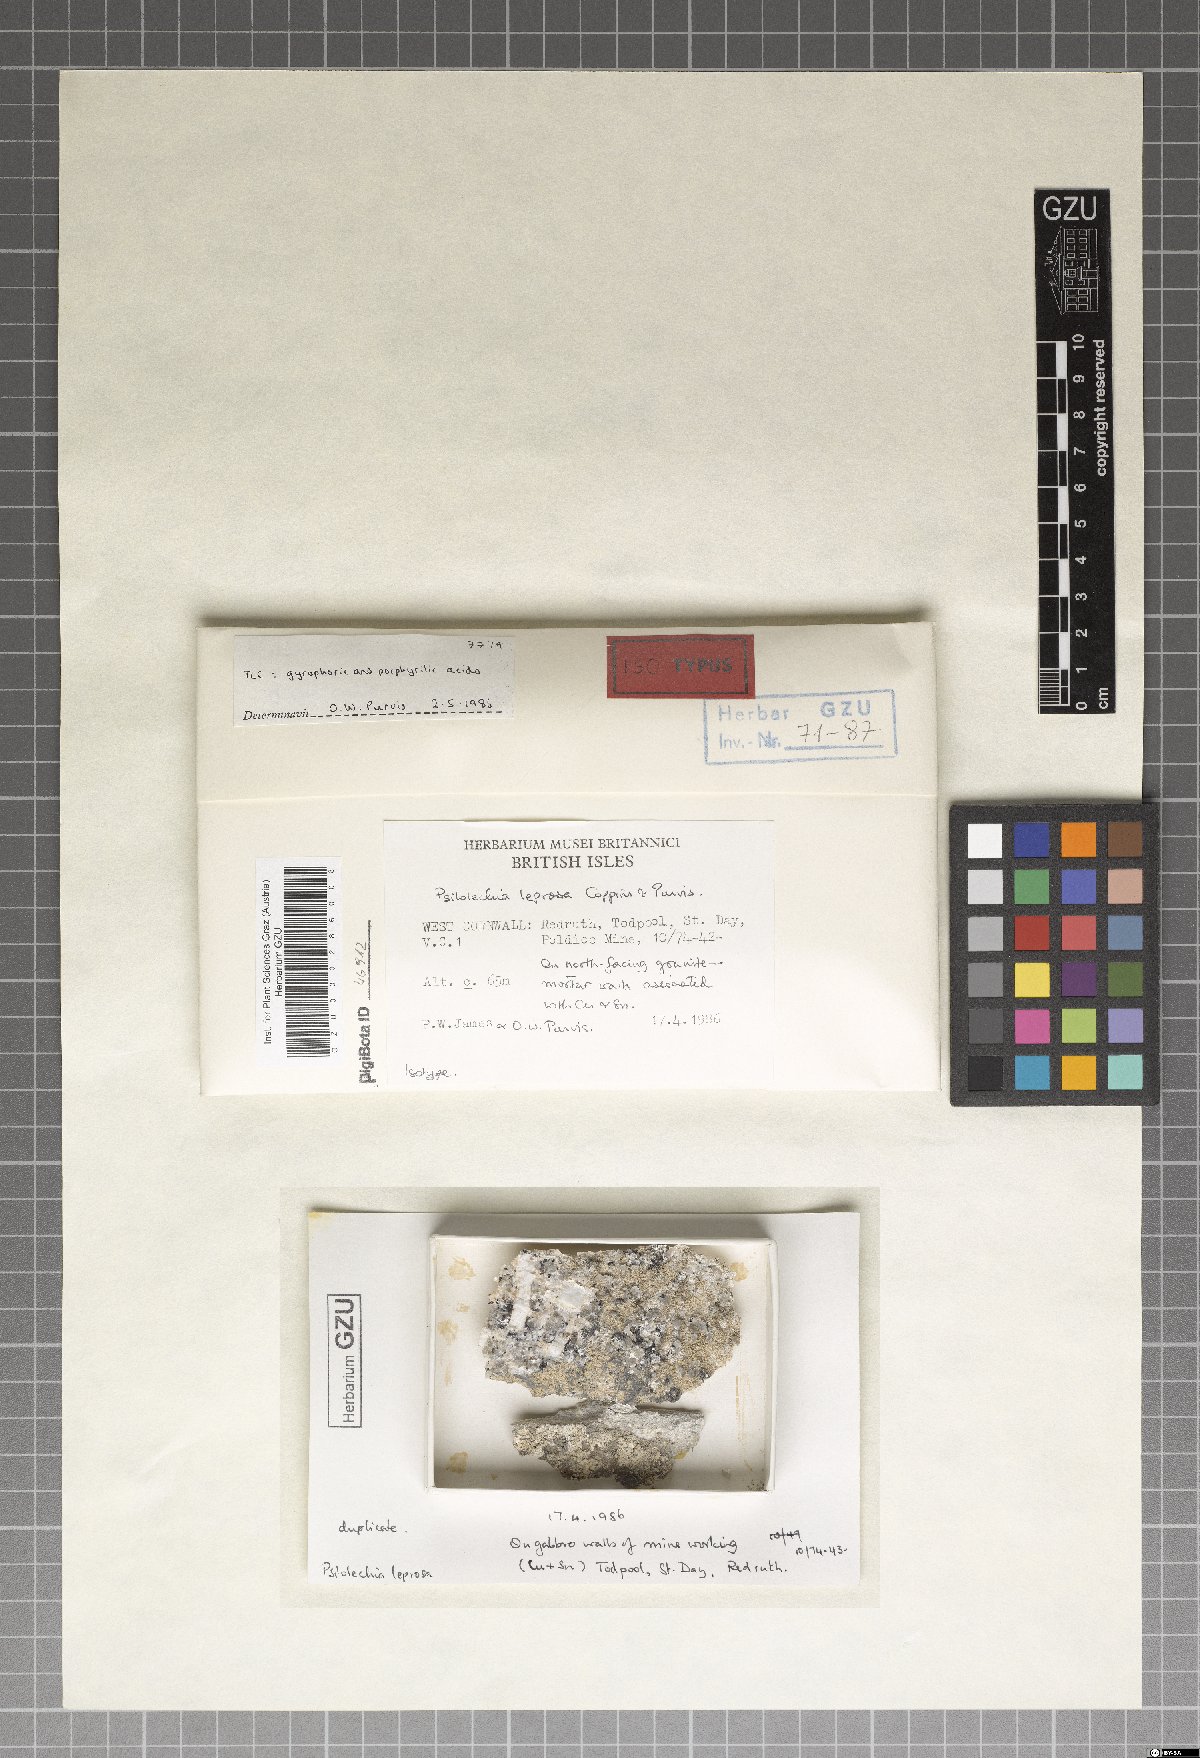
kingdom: Fungi
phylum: Ascomycota
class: Lecanoromycetes
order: Lecanorales
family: Psilolechiaceae
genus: Psilolechia
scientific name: Psilolechia leprosa
